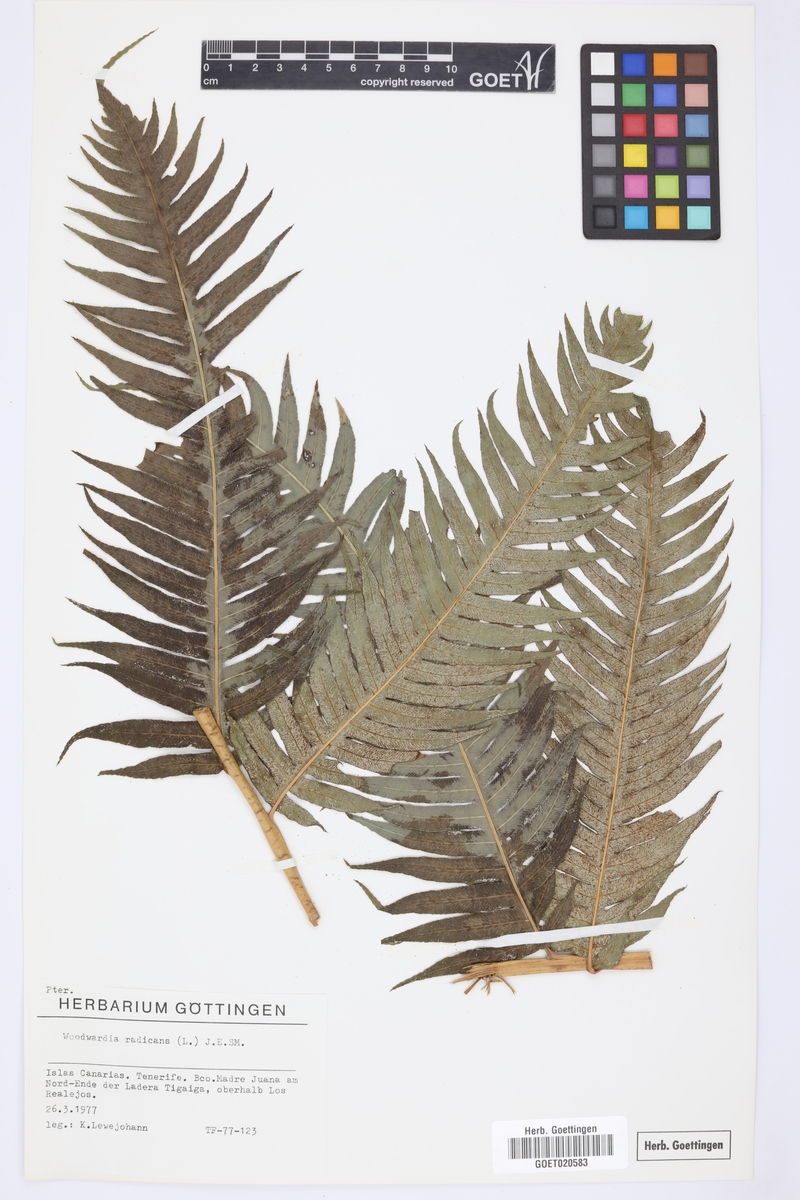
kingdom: Plantae
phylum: Tracheophyta
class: Polypodiopsida
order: Polypodiales
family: Blechnaceae
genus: Woodwardia
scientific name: Woodwardia radicans
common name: Rooting chainfern
